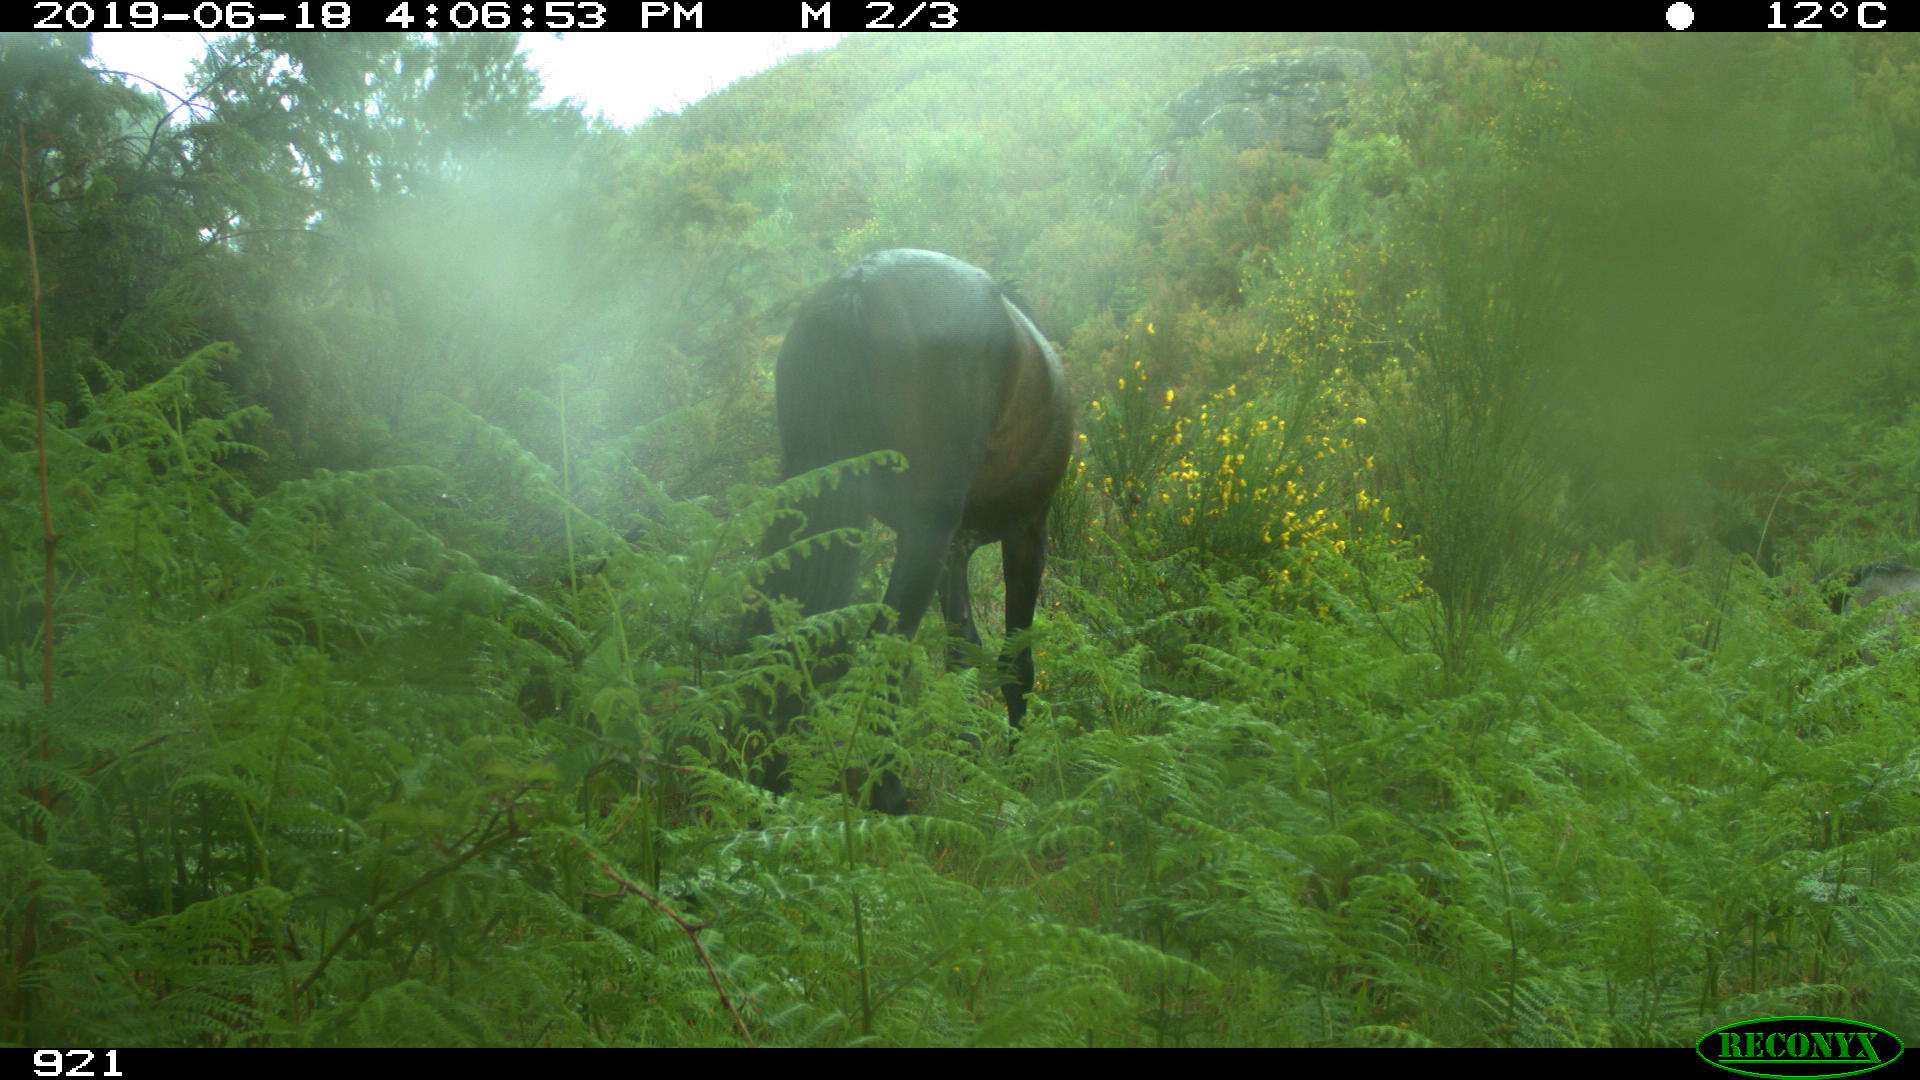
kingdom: Animalia
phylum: Chordata
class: Mammalia
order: Perissodactyla
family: Equidae
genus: Equus
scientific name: Equus caballus
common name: Horse
